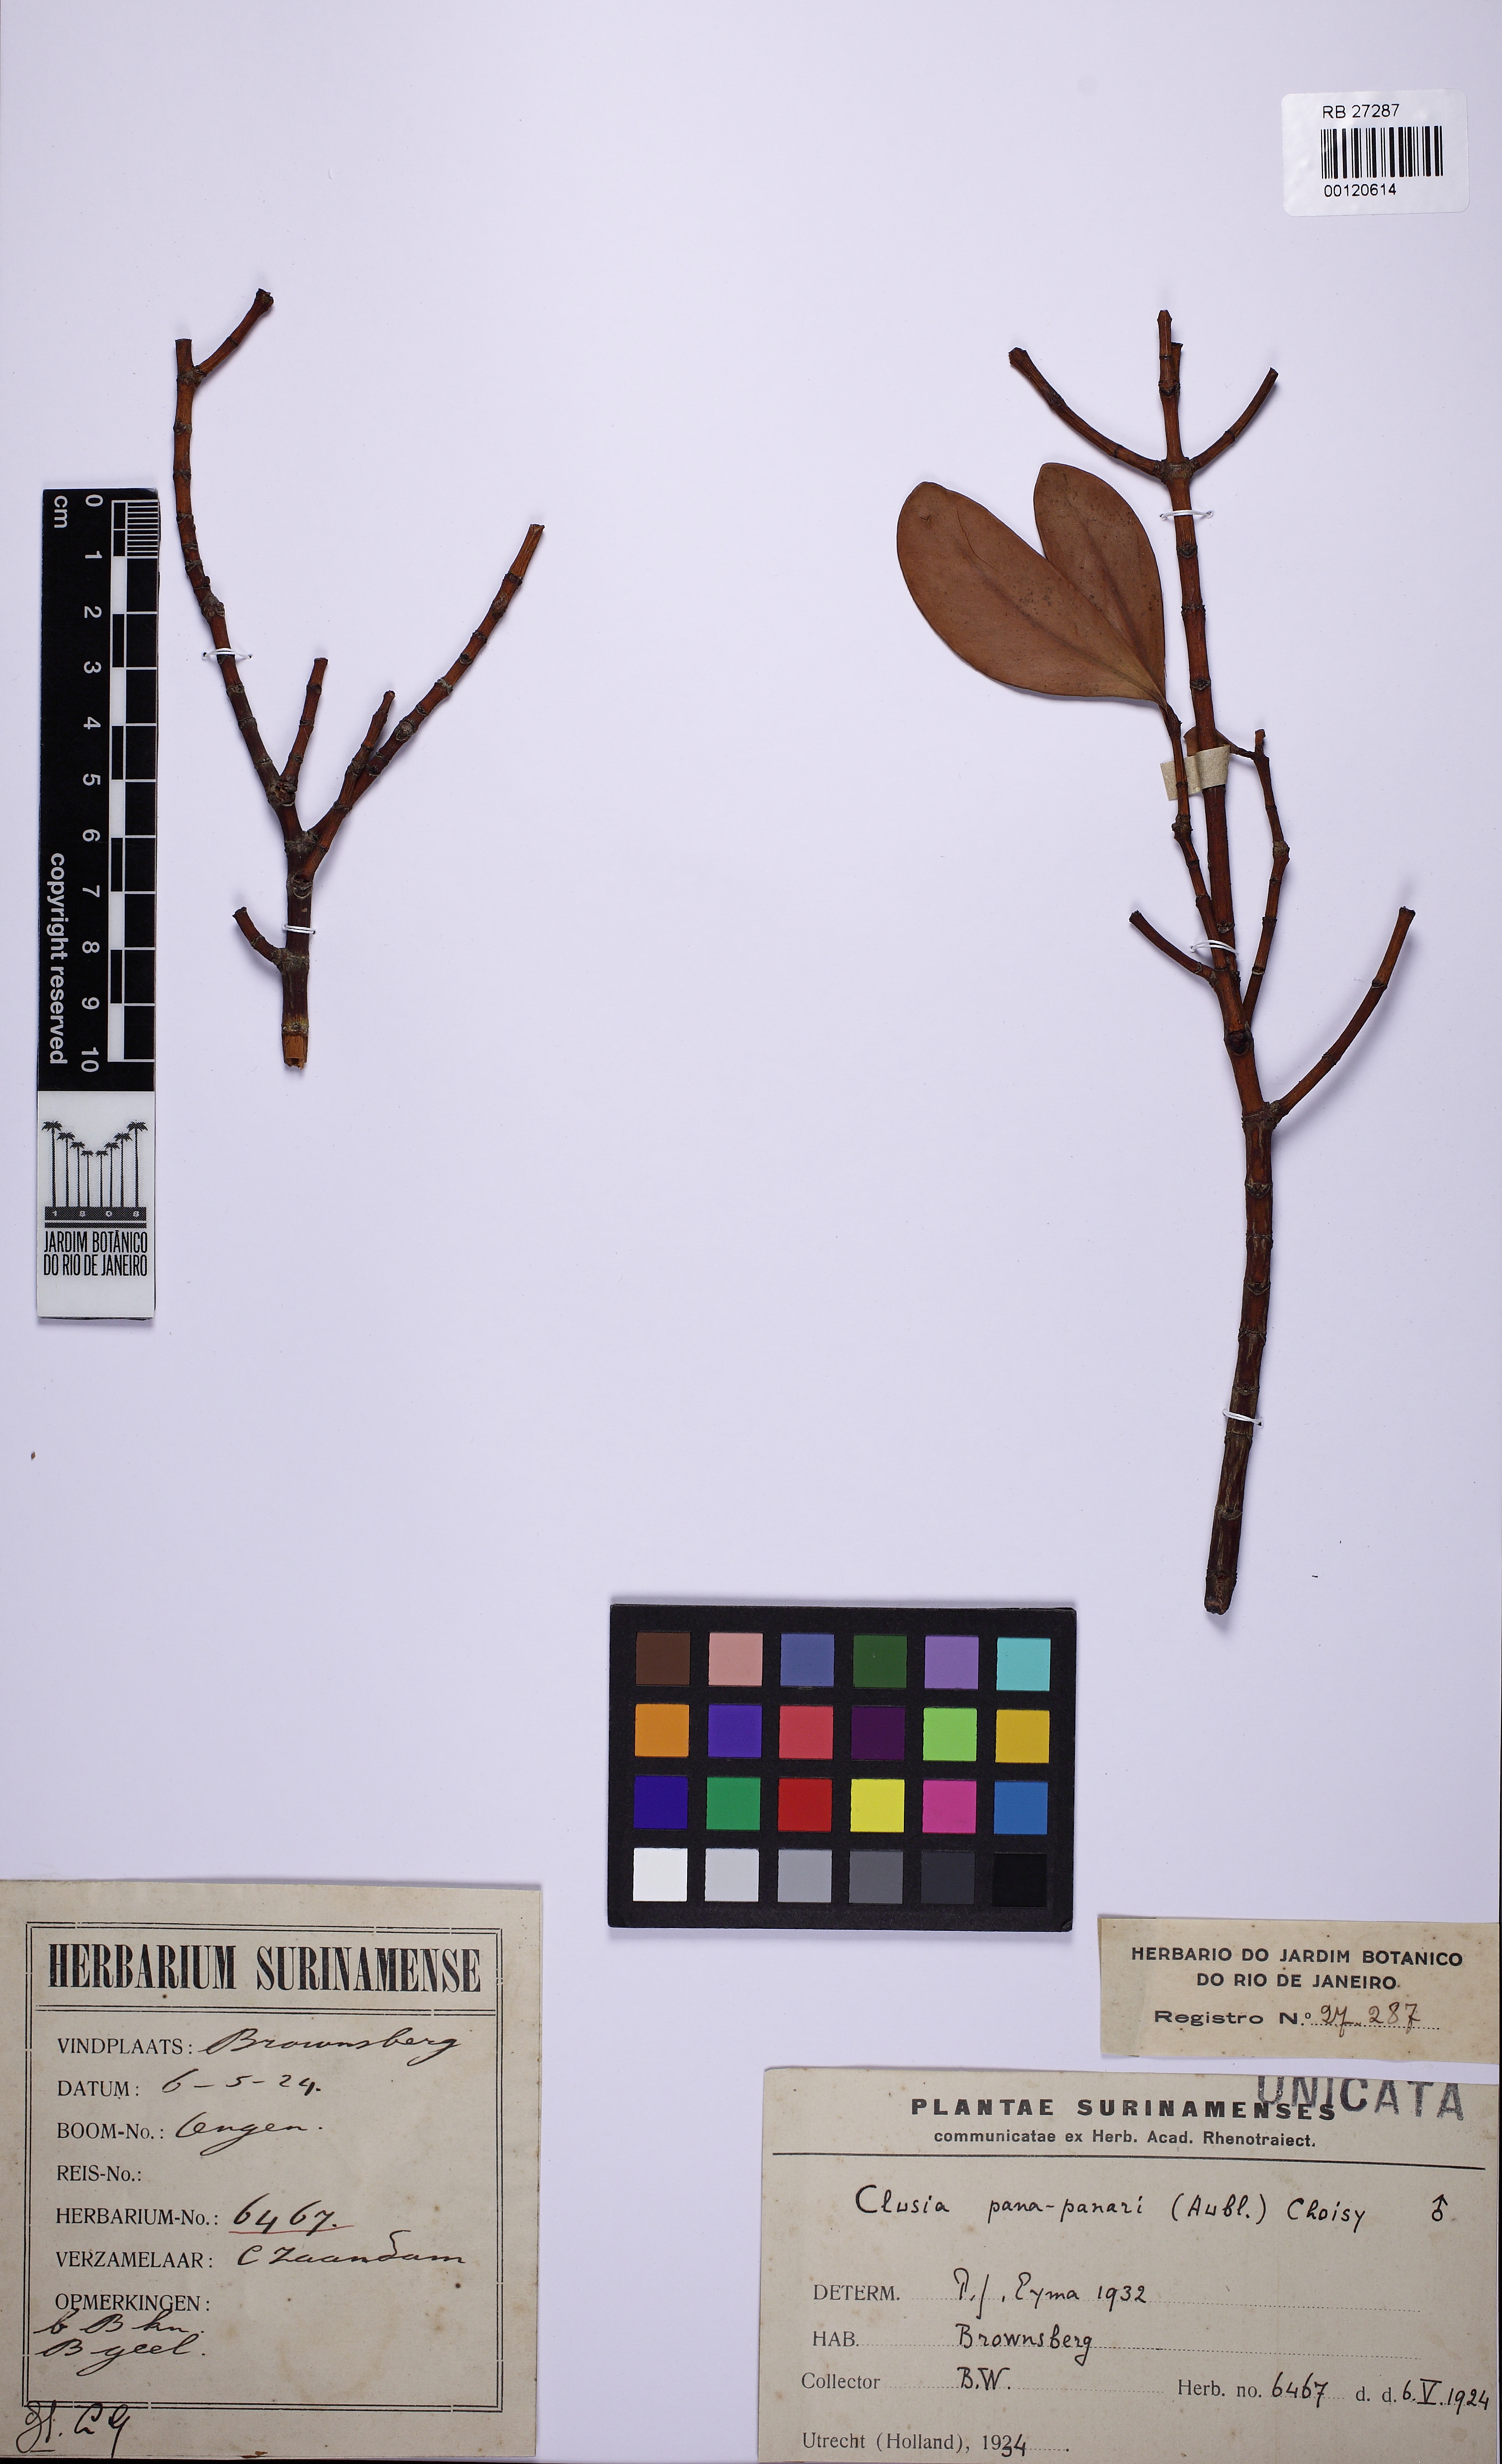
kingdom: Plantae
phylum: Tracheophyta
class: Magnoliopsida
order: Malpighiales
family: Clusiaceae
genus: Clusia
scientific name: Clusia panapanari
